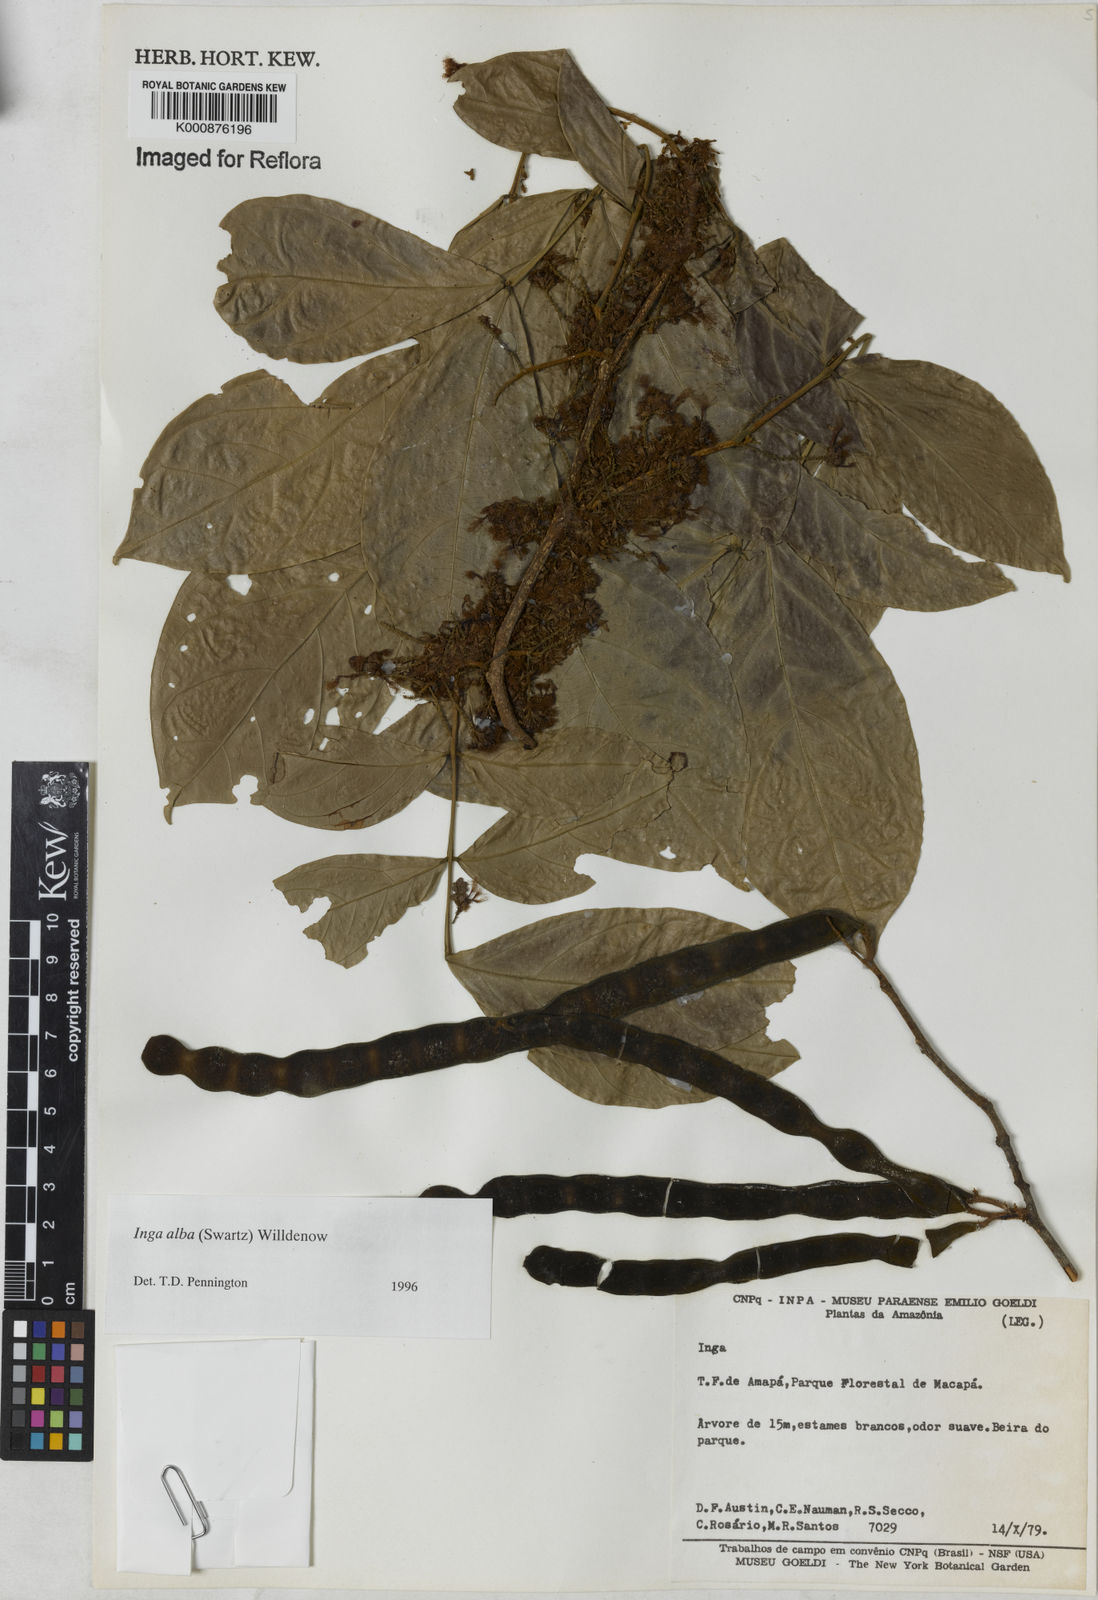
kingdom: Plantae
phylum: Tracheophyta
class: Magnoliopsida
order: Fabales
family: Fabaceae
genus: Inga
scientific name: Inga alba
